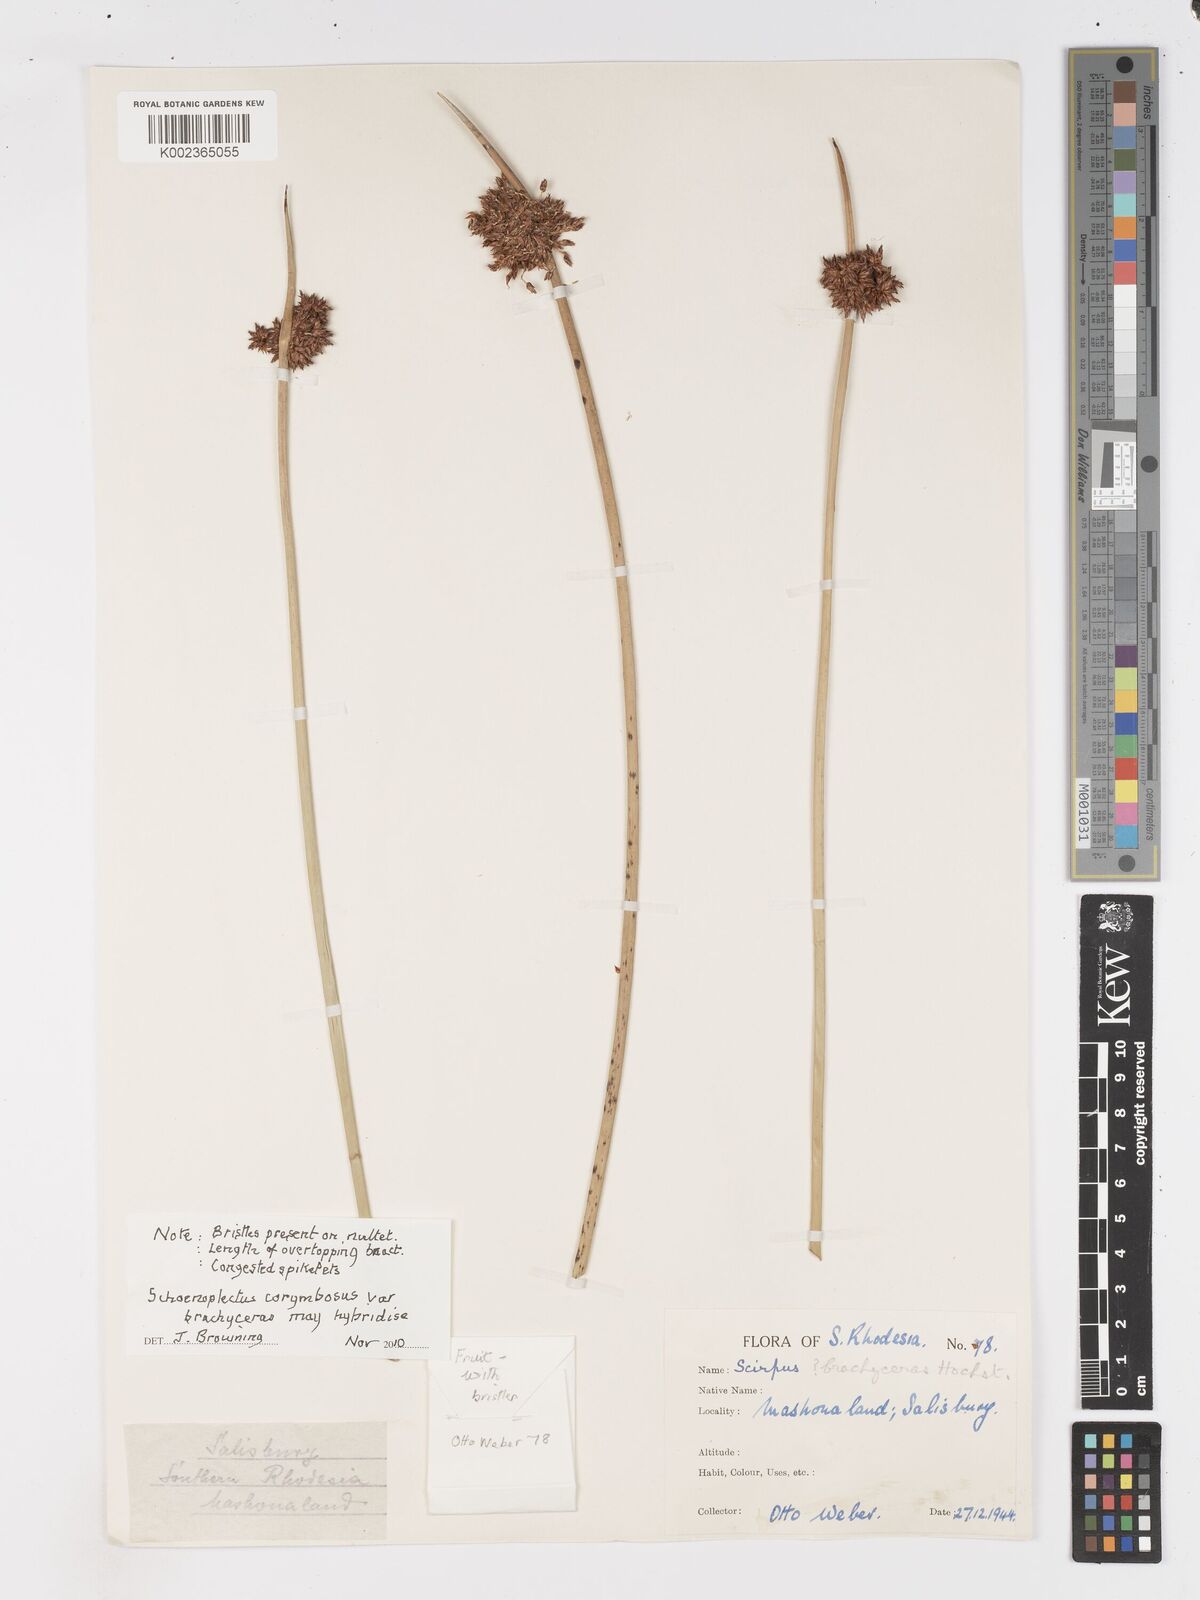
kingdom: Plantae
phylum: Tracheophyta
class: Liliopsida
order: Poales
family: Cyperaceae
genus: Schoenoplectus
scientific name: Schoenoplectus
